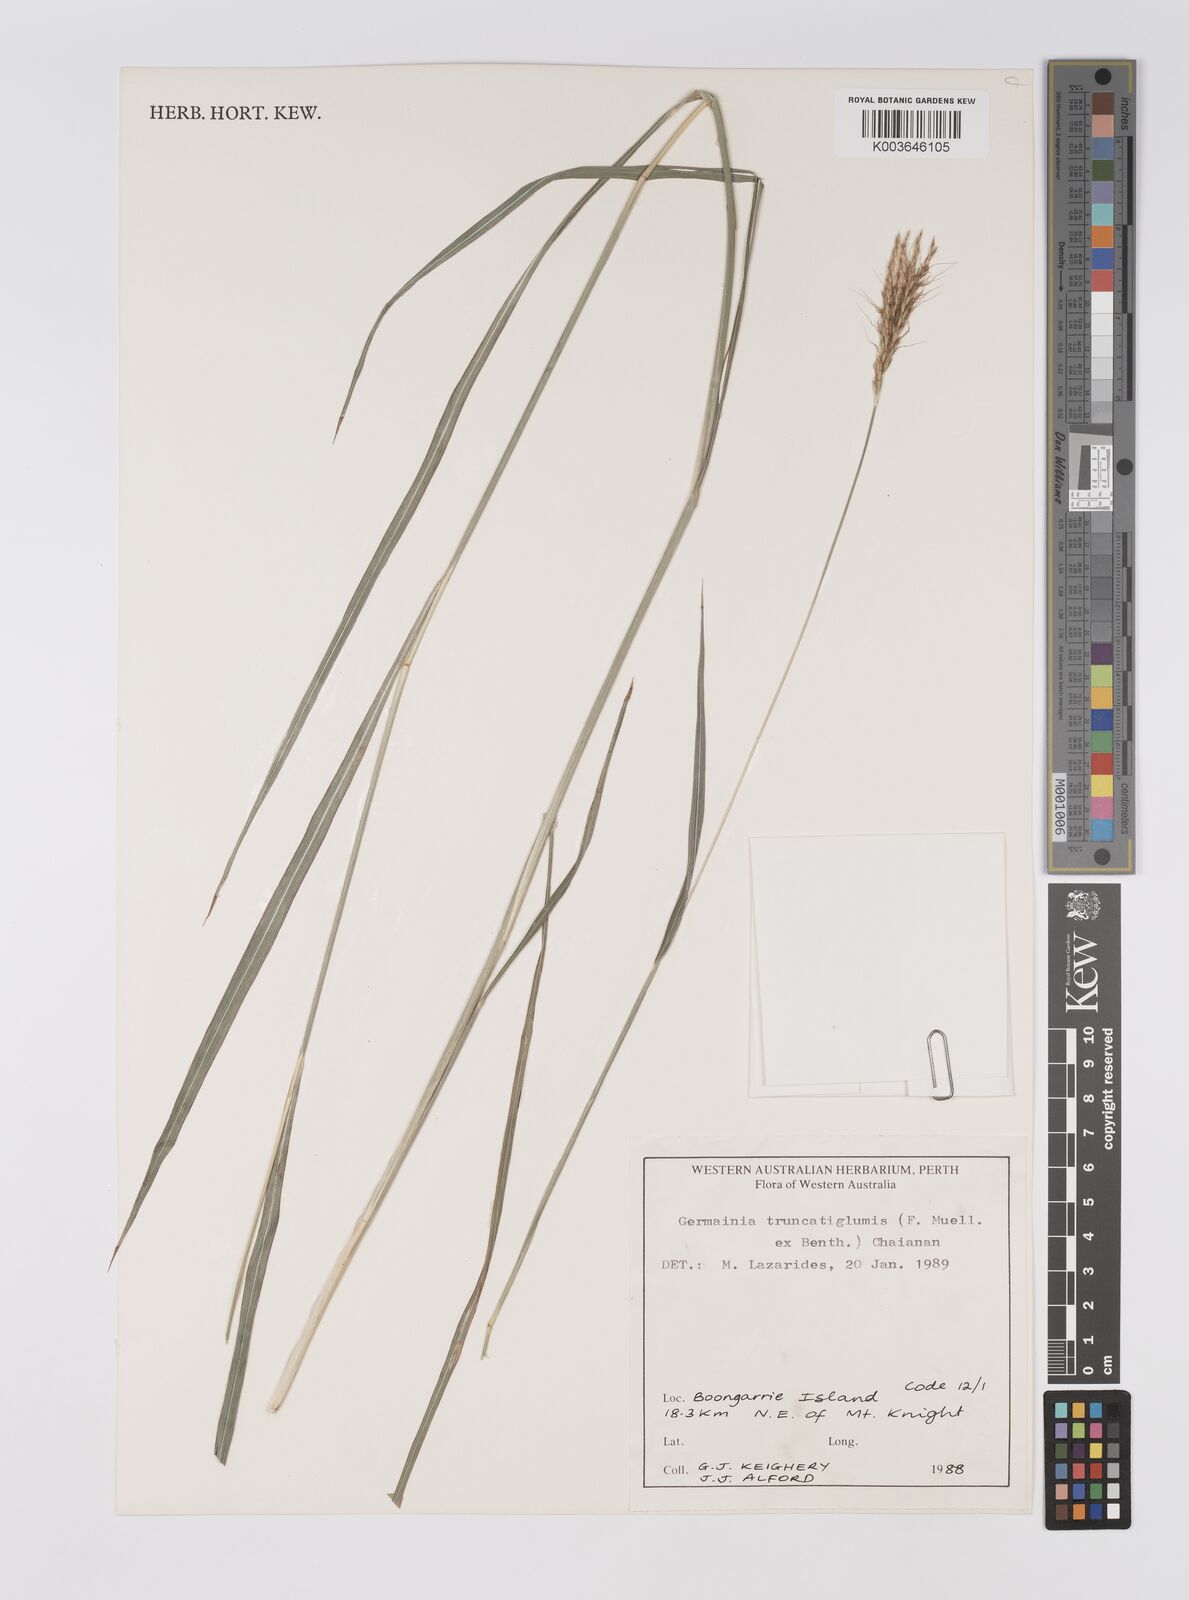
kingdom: Plantae
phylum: Tracheophyta
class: Liliopsida
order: Poales
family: Poaceae
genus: Germainia
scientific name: Germainia truncatiglumis
